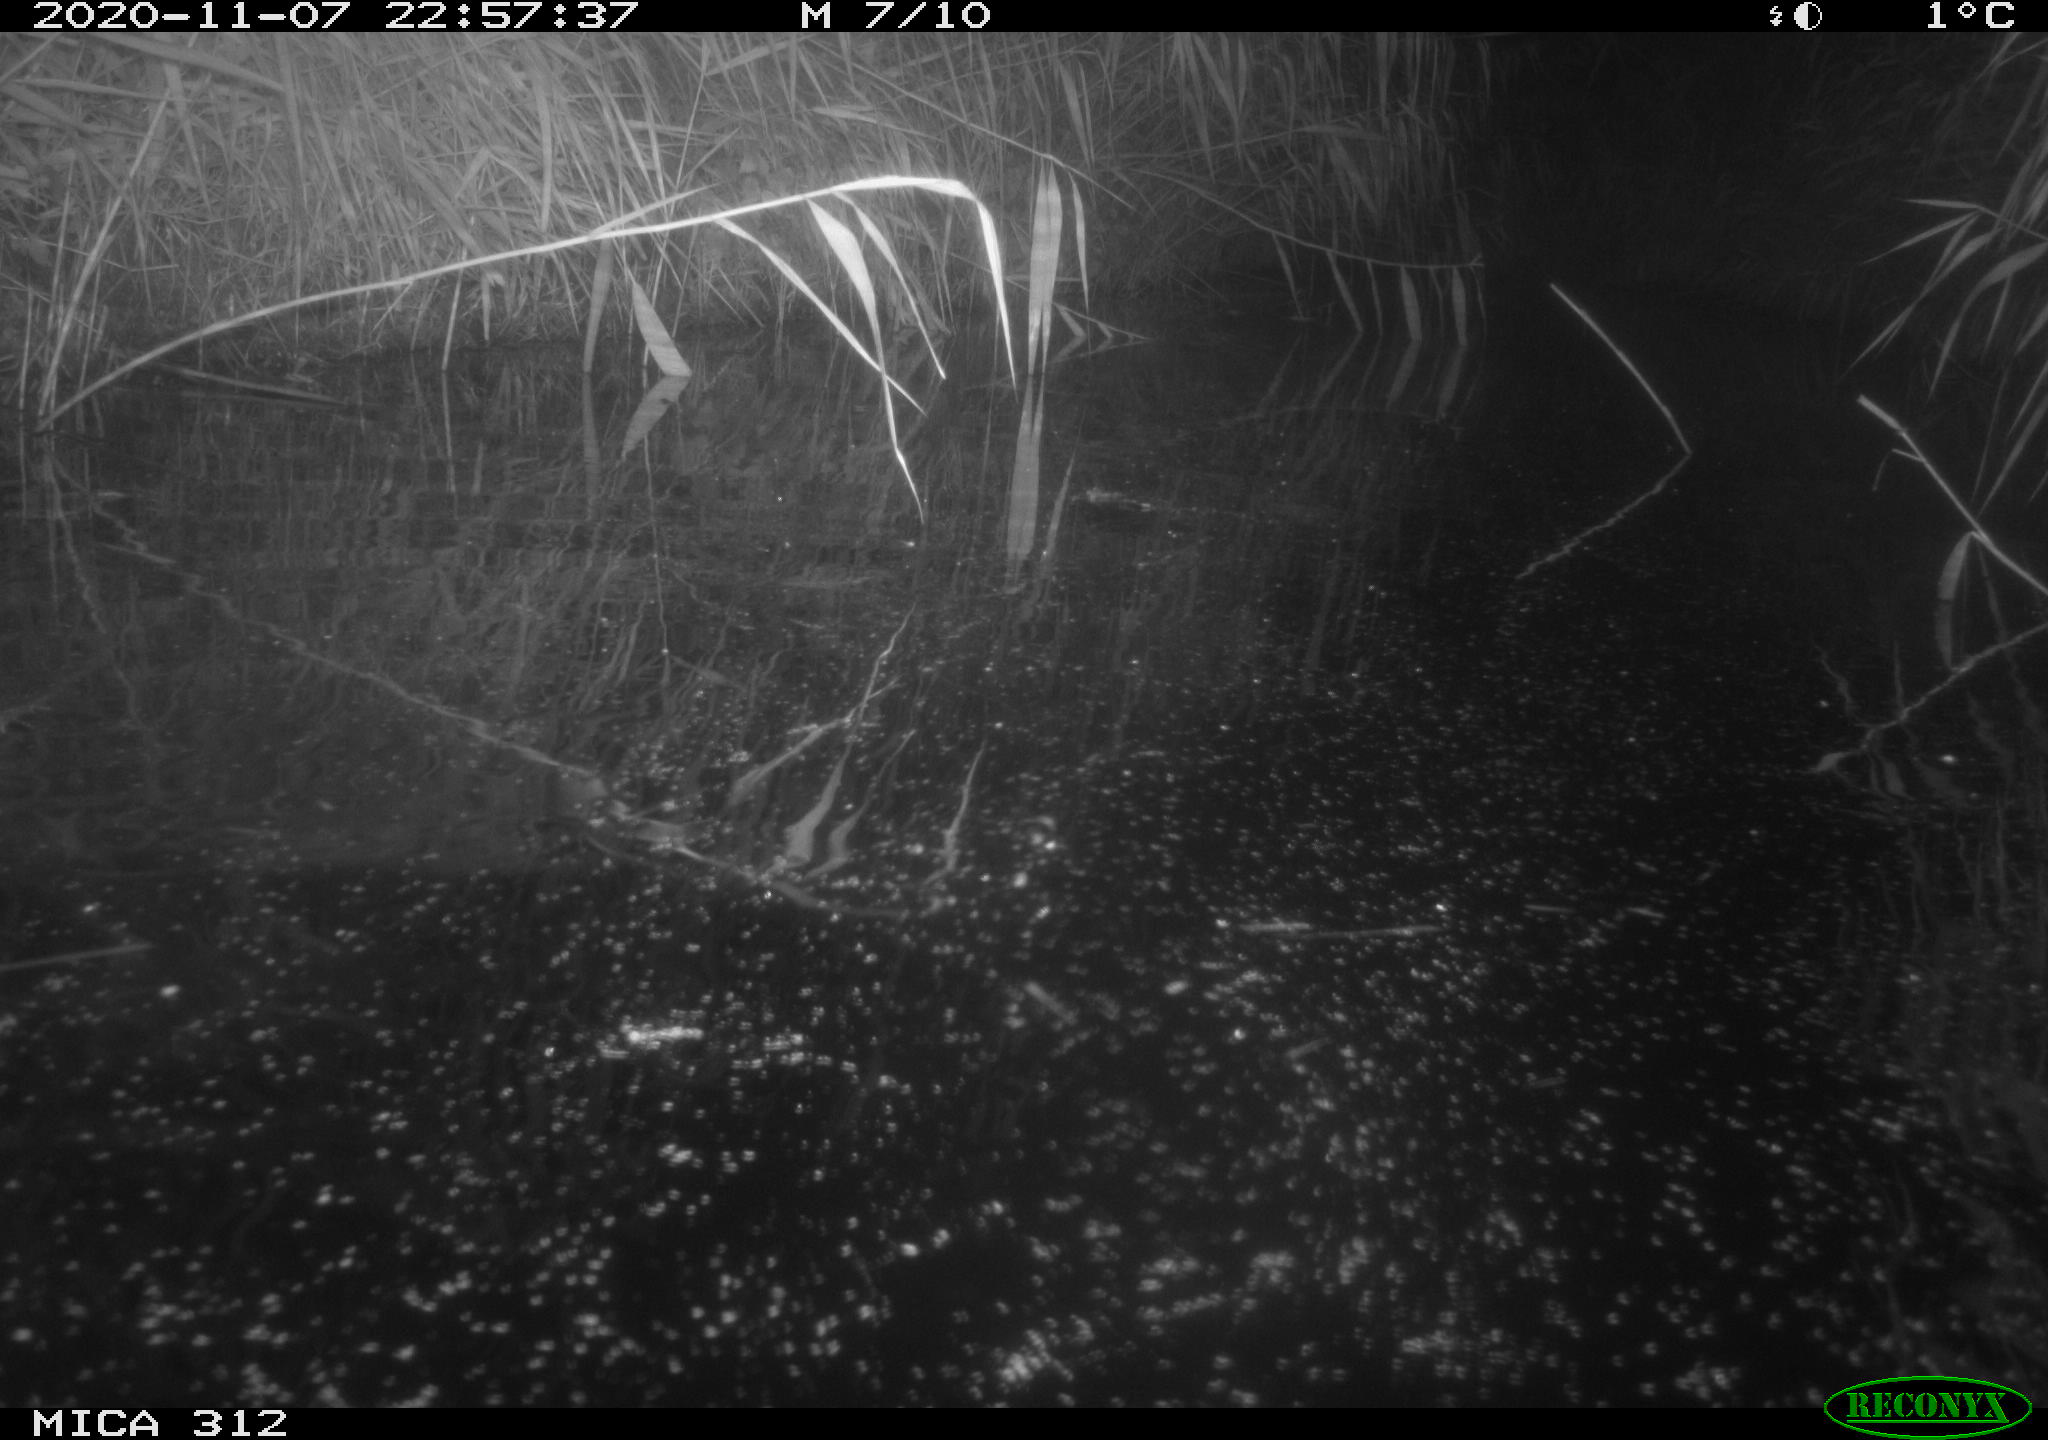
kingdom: Animalia
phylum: Chordata
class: Mammalia
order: Rodentia
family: Muridae
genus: Rattus
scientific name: Rattus norvegicus
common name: Brown rat
